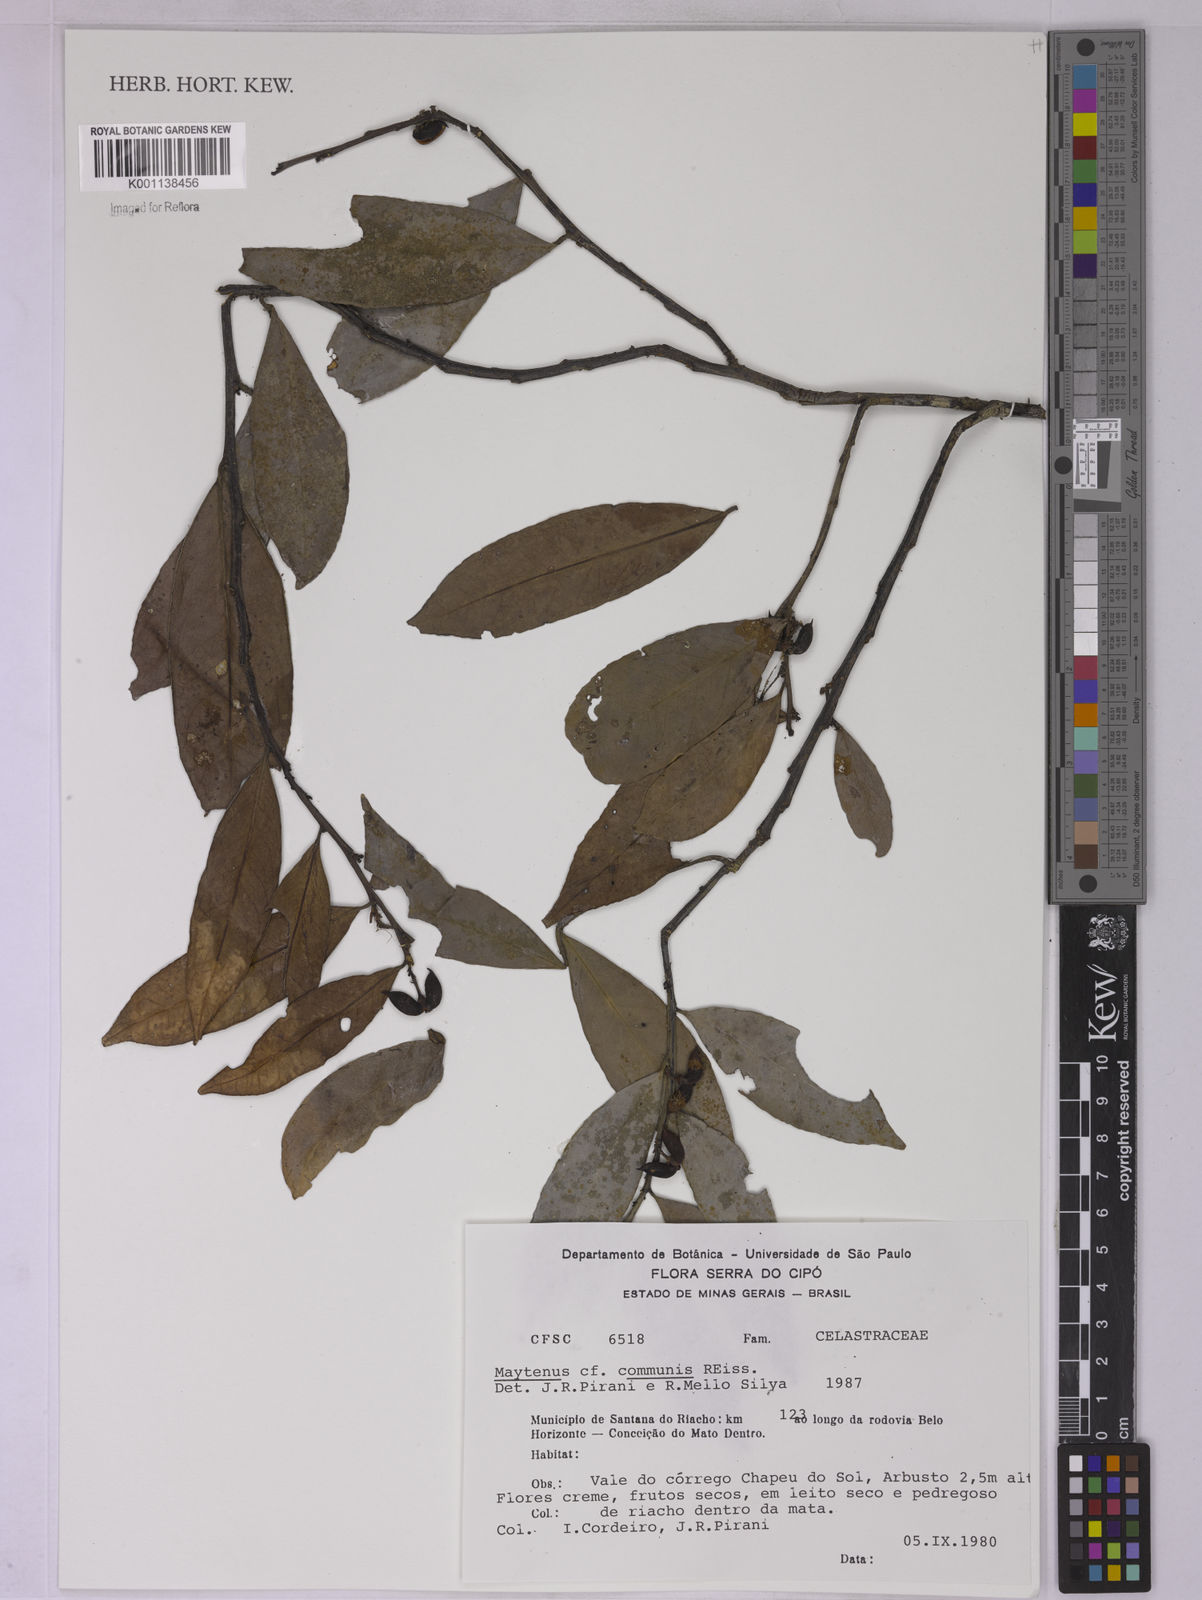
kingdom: Plantae
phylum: Tracheophyta
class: Magnoliopsida
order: Celastrales
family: Celastraceae
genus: Monteverdia
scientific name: Monteverdia communis
